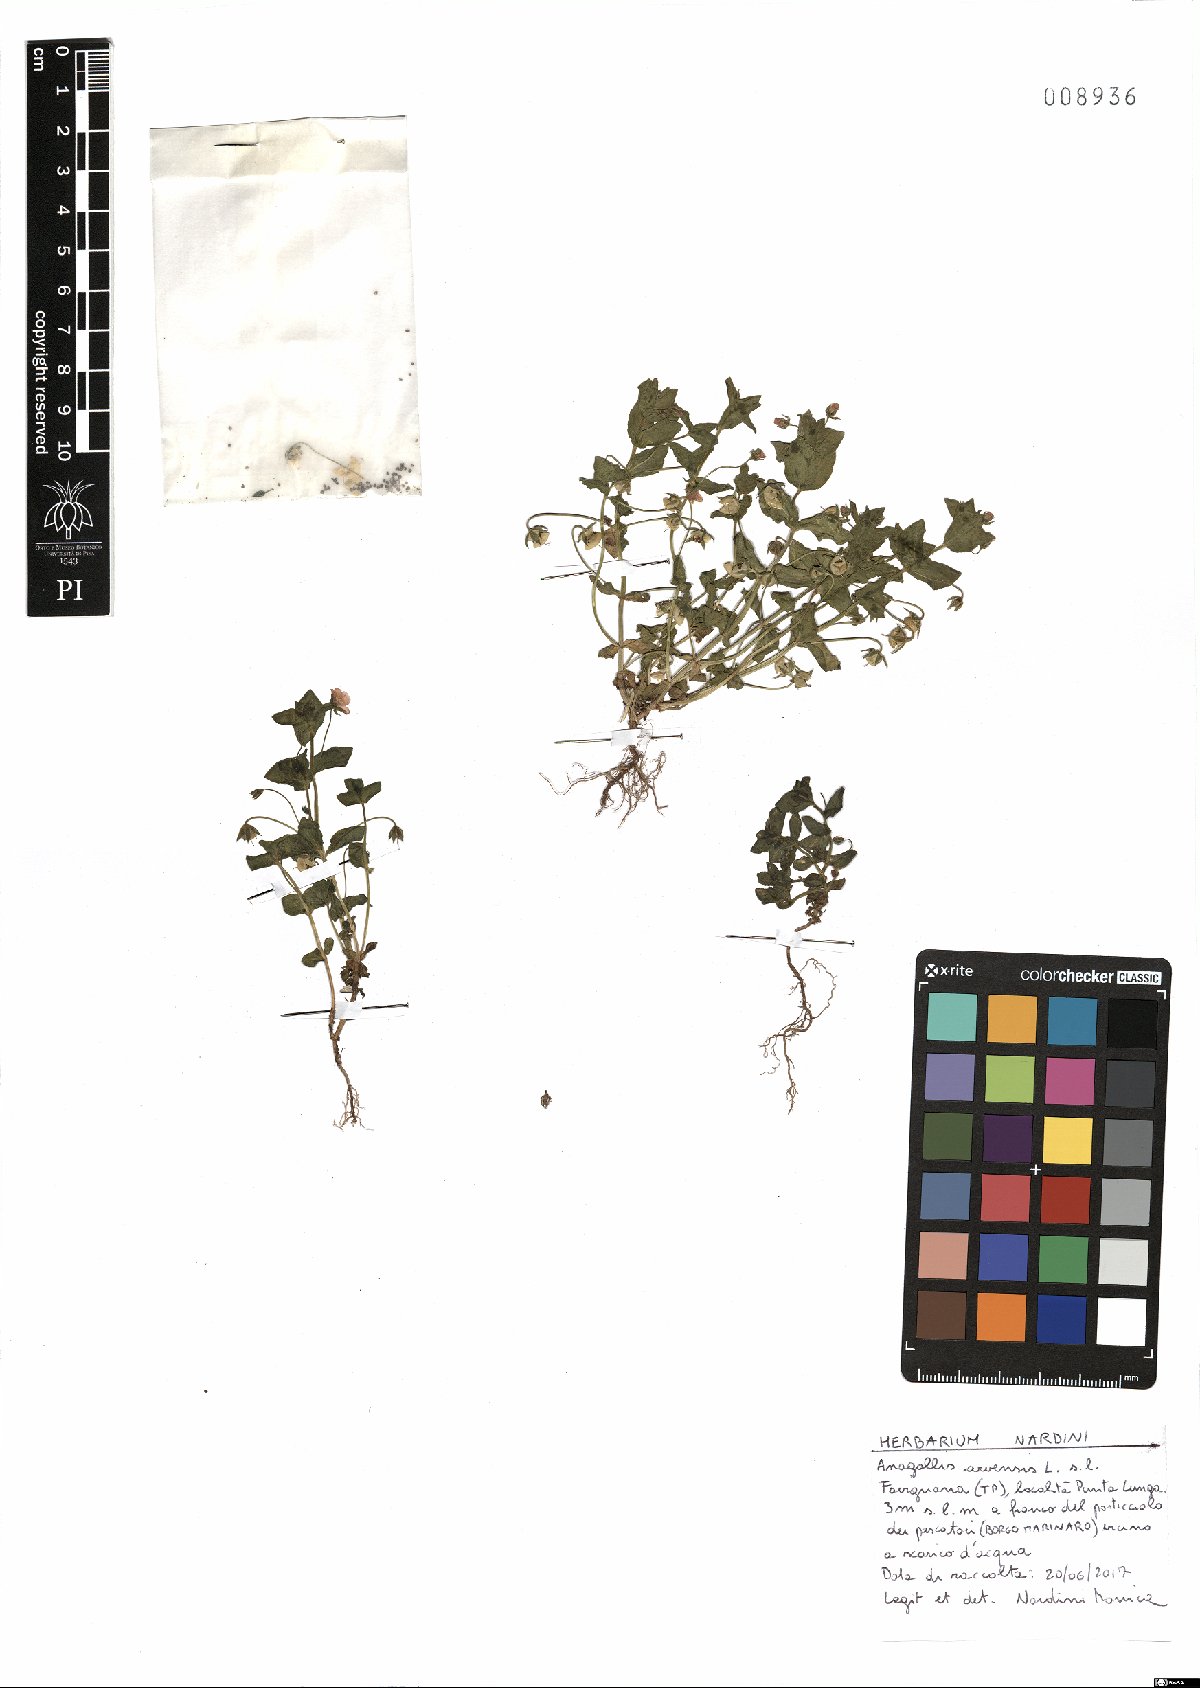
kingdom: Plantae
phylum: Tracheophyta
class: Magnoliopsida
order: Ericales
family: Primulaceae
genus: Lysimachia
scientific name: Lysimachia arvensis
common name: Scarlet pimpernel
